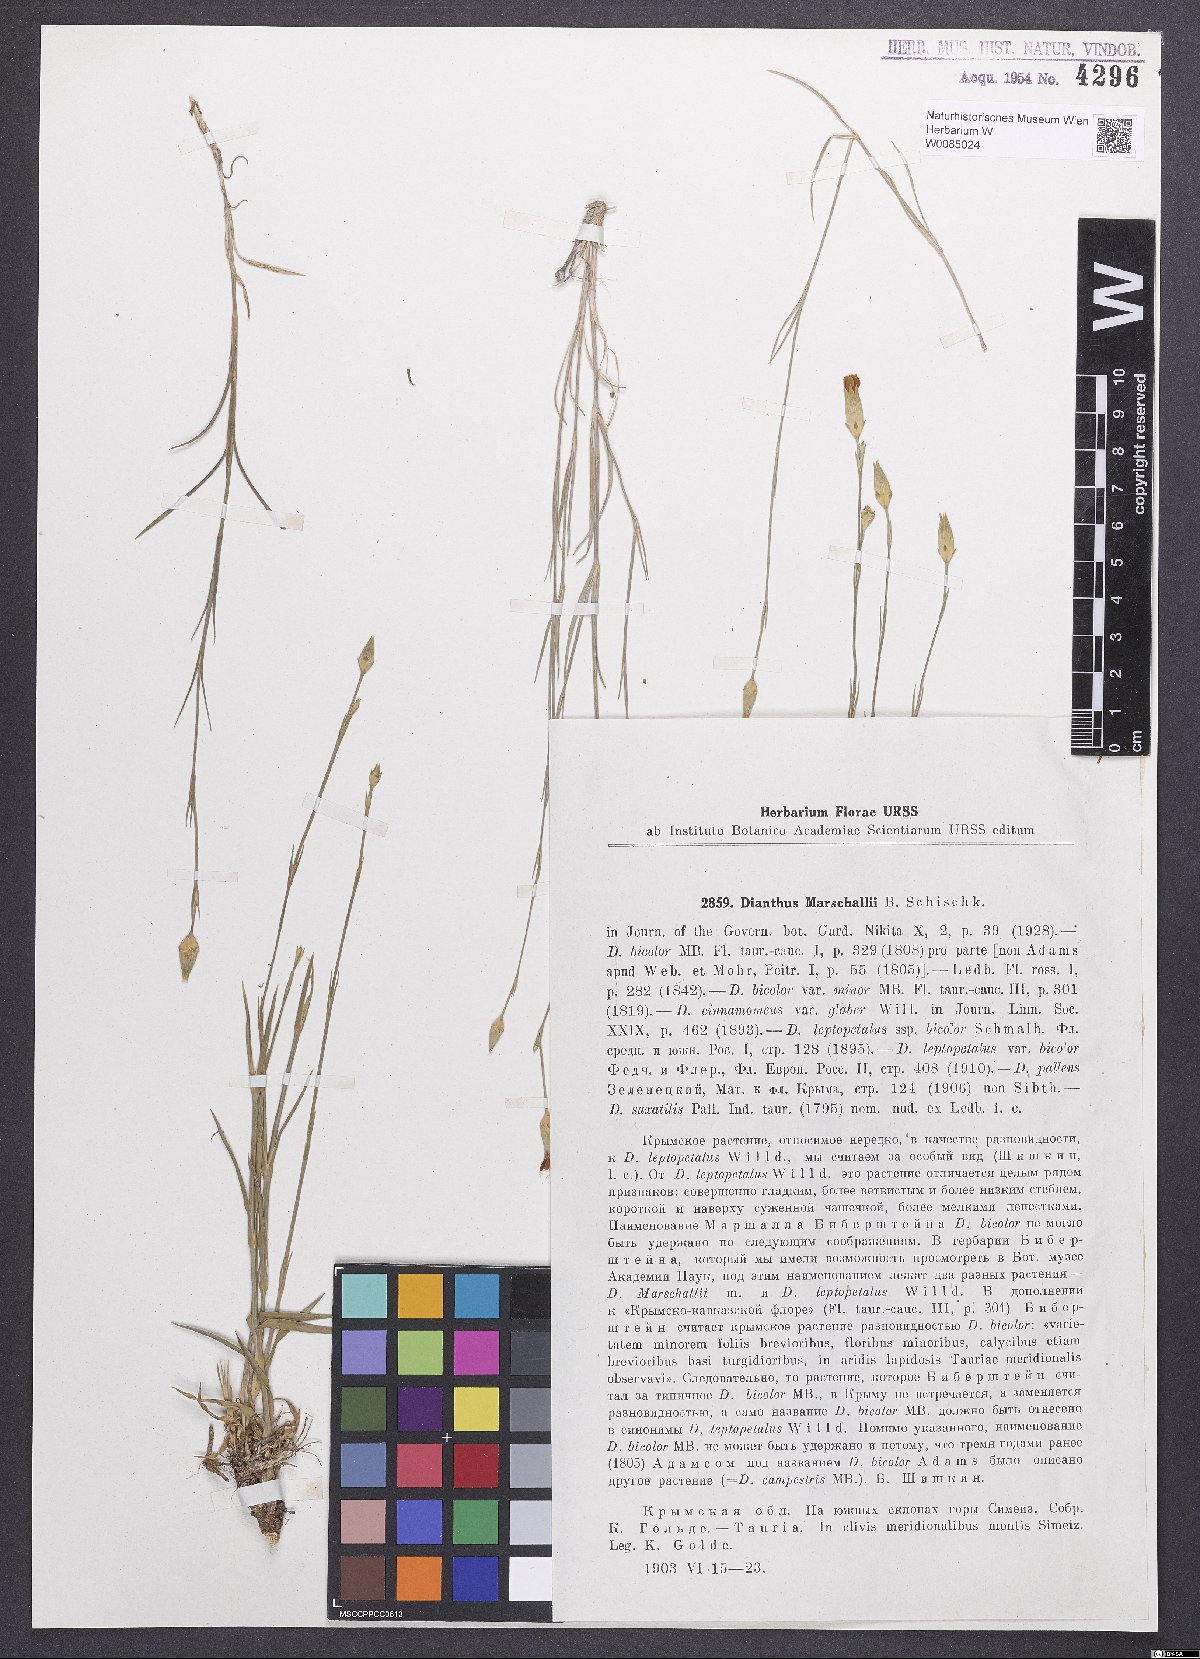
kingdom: Plantae
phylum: Tracheophyta
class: Magnoliopsida
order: Caryophyllales
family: Caryophyllaceae
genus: Dianthus
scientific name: Dianthus marschallii
